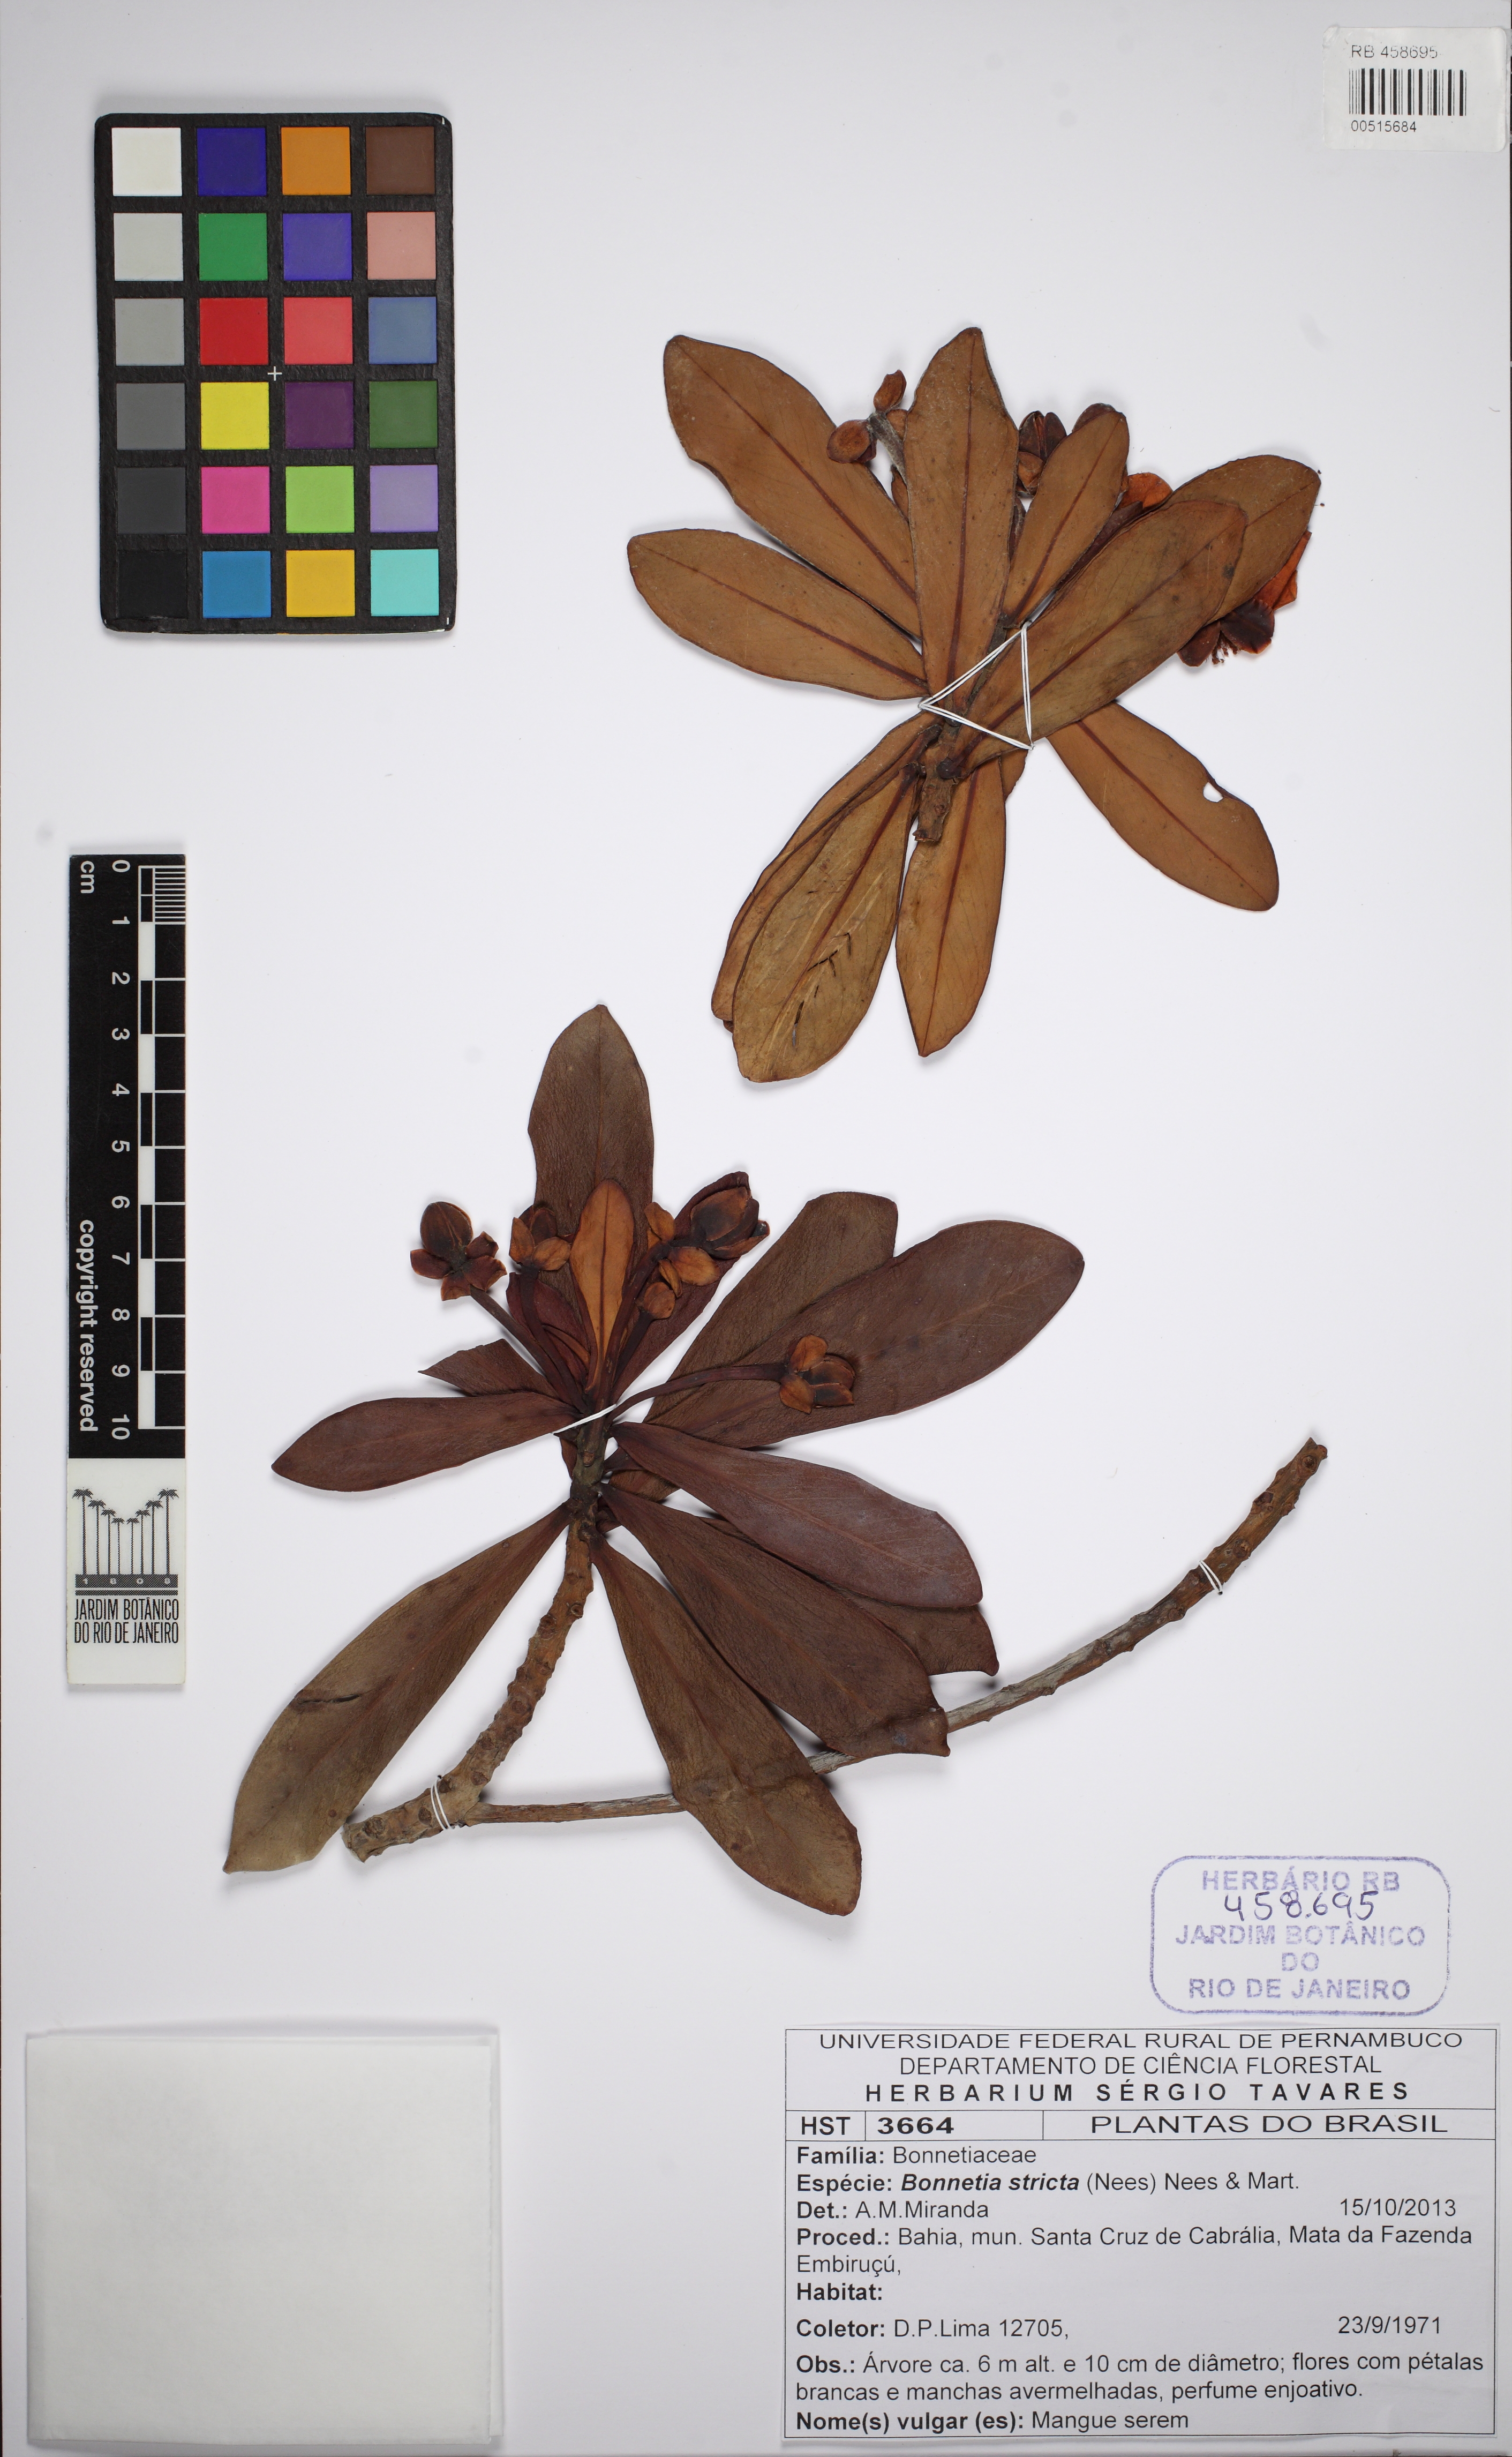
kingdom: Plantae
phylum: Tracheophyta
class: Magnoliopsida
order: Malpighiales
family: Bonnetiaceae
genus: Bonnetia
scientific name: Bonnetia stricta
